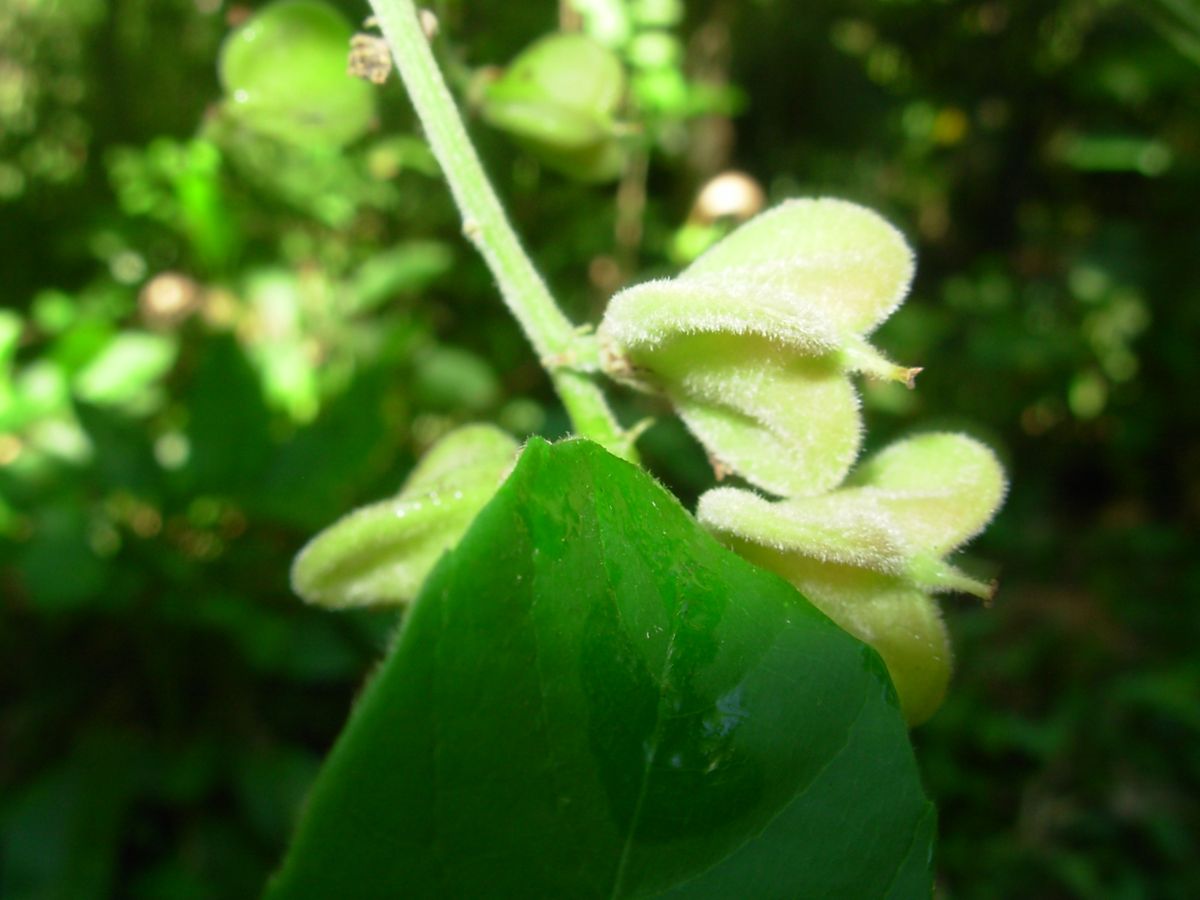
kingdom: Plantae
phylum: Tracheophyta
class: Magnoliopsida
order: Sapindales
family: Sapindaceae
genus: Cupania
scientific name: Cupania guatemalensis
